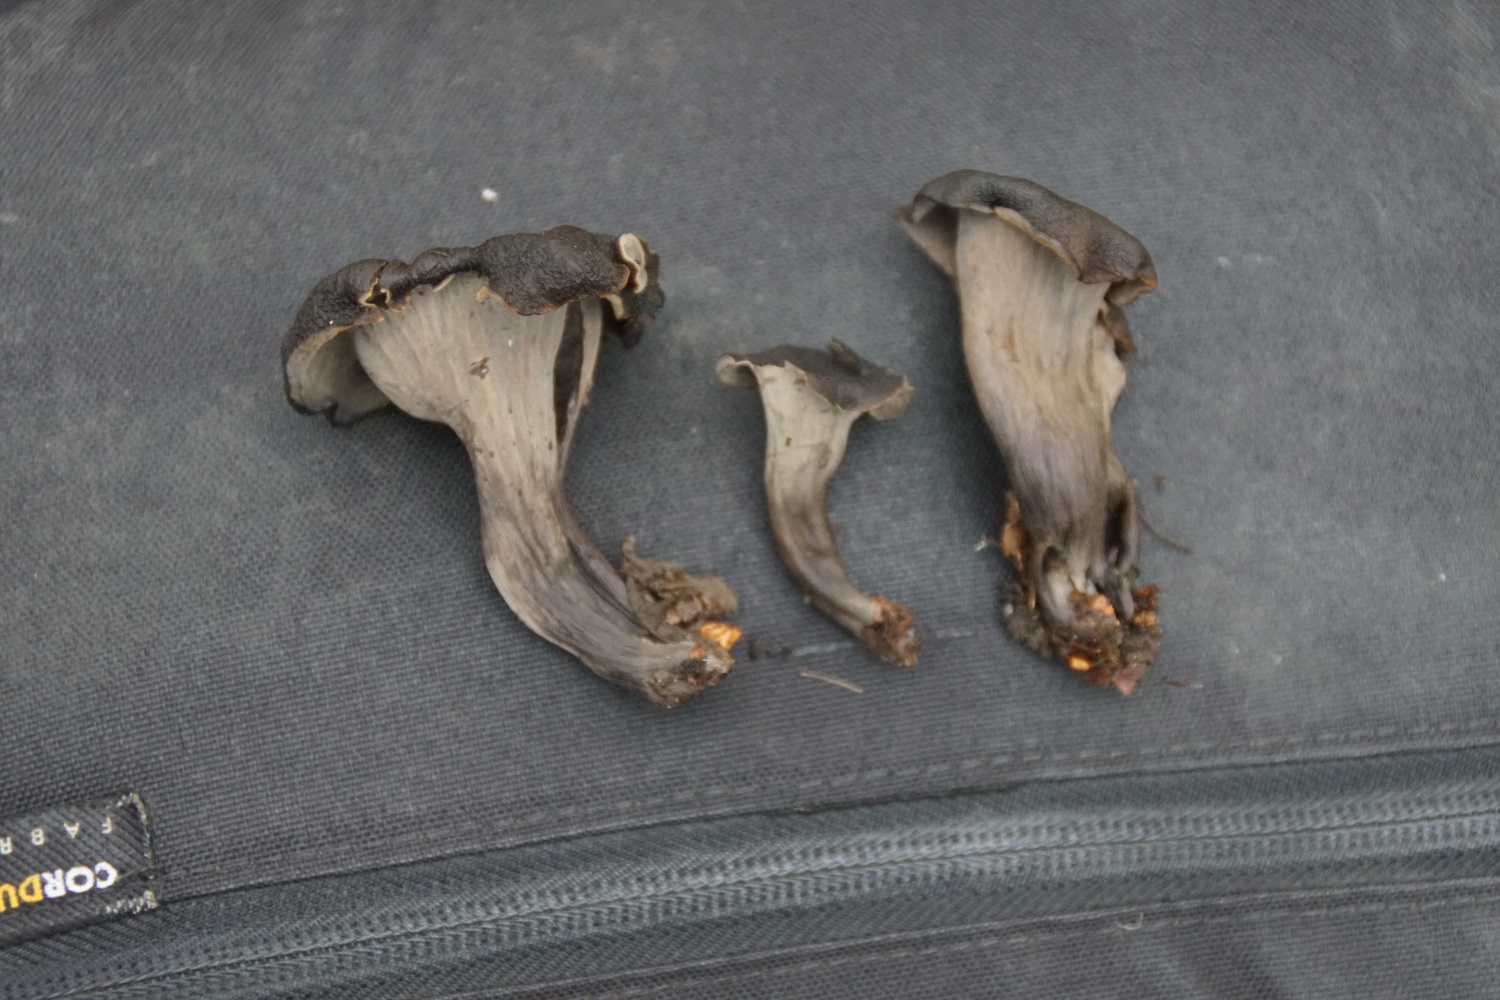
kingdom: Fungi
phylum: Basidiomycota
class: Agaricomycetes
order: Cantharellales
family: Hydnaceae
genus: Craterellus
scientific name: Craterellus cornucopioides
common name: trompetsvamp
